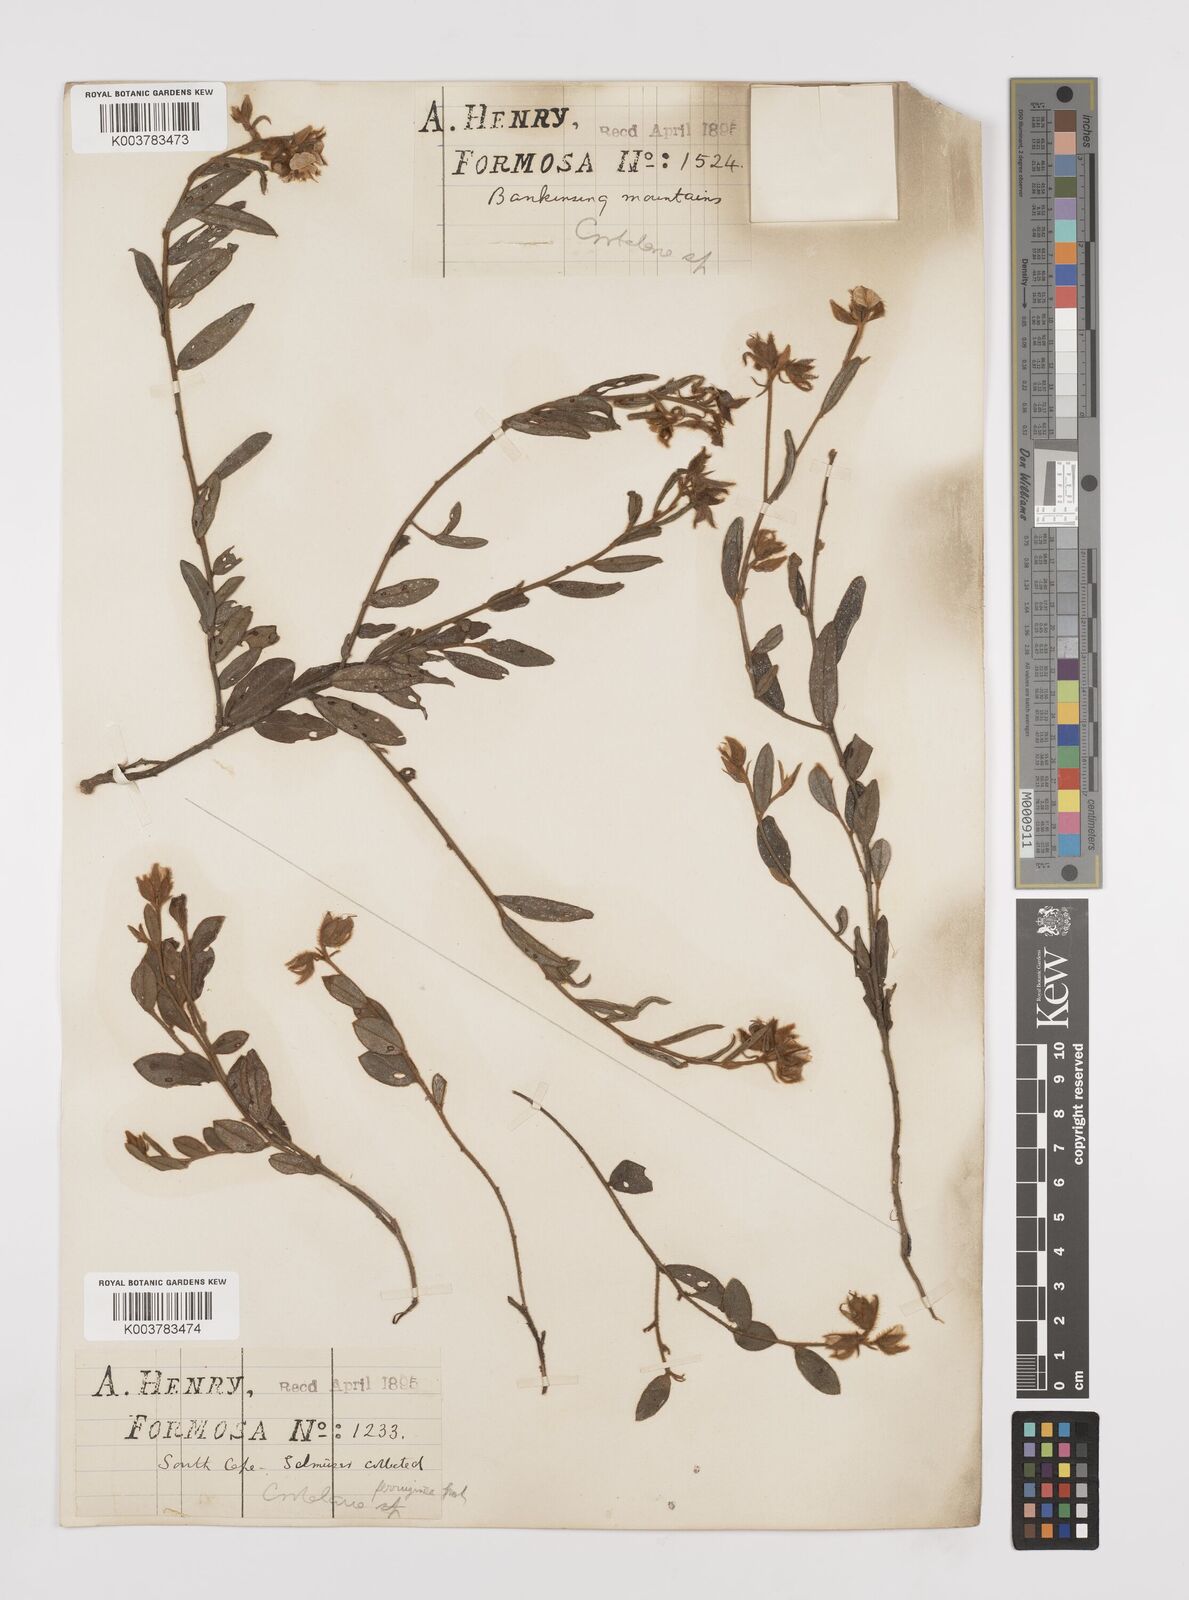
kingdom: Plantae
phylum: Tracheophyta
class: Magnoliopsida
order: Fabales
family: Fabaceae
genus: Crotalaria
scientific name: Crotalaria lejoloba
